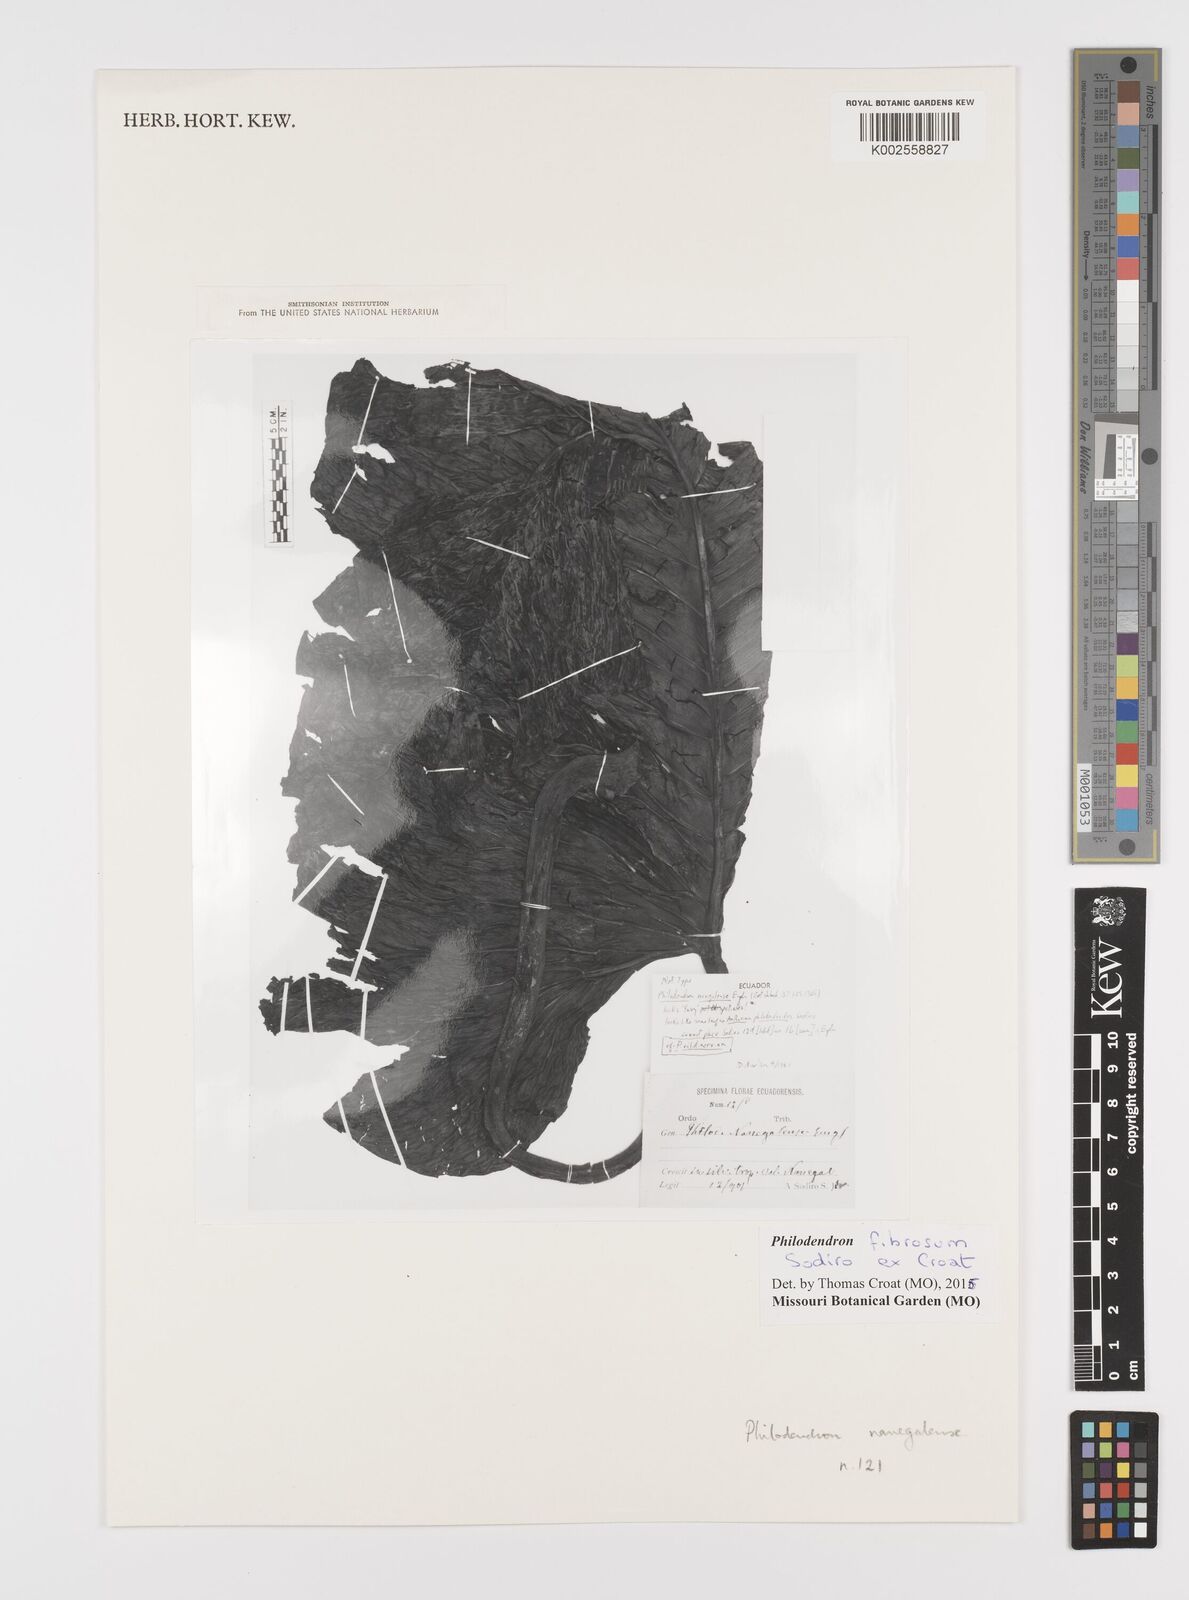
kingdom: Plantae
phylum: Tracheophyta
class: Liliopsida
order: Alismatales
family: Araceae
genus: Philodendron
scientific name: Philodendron fibrosum
